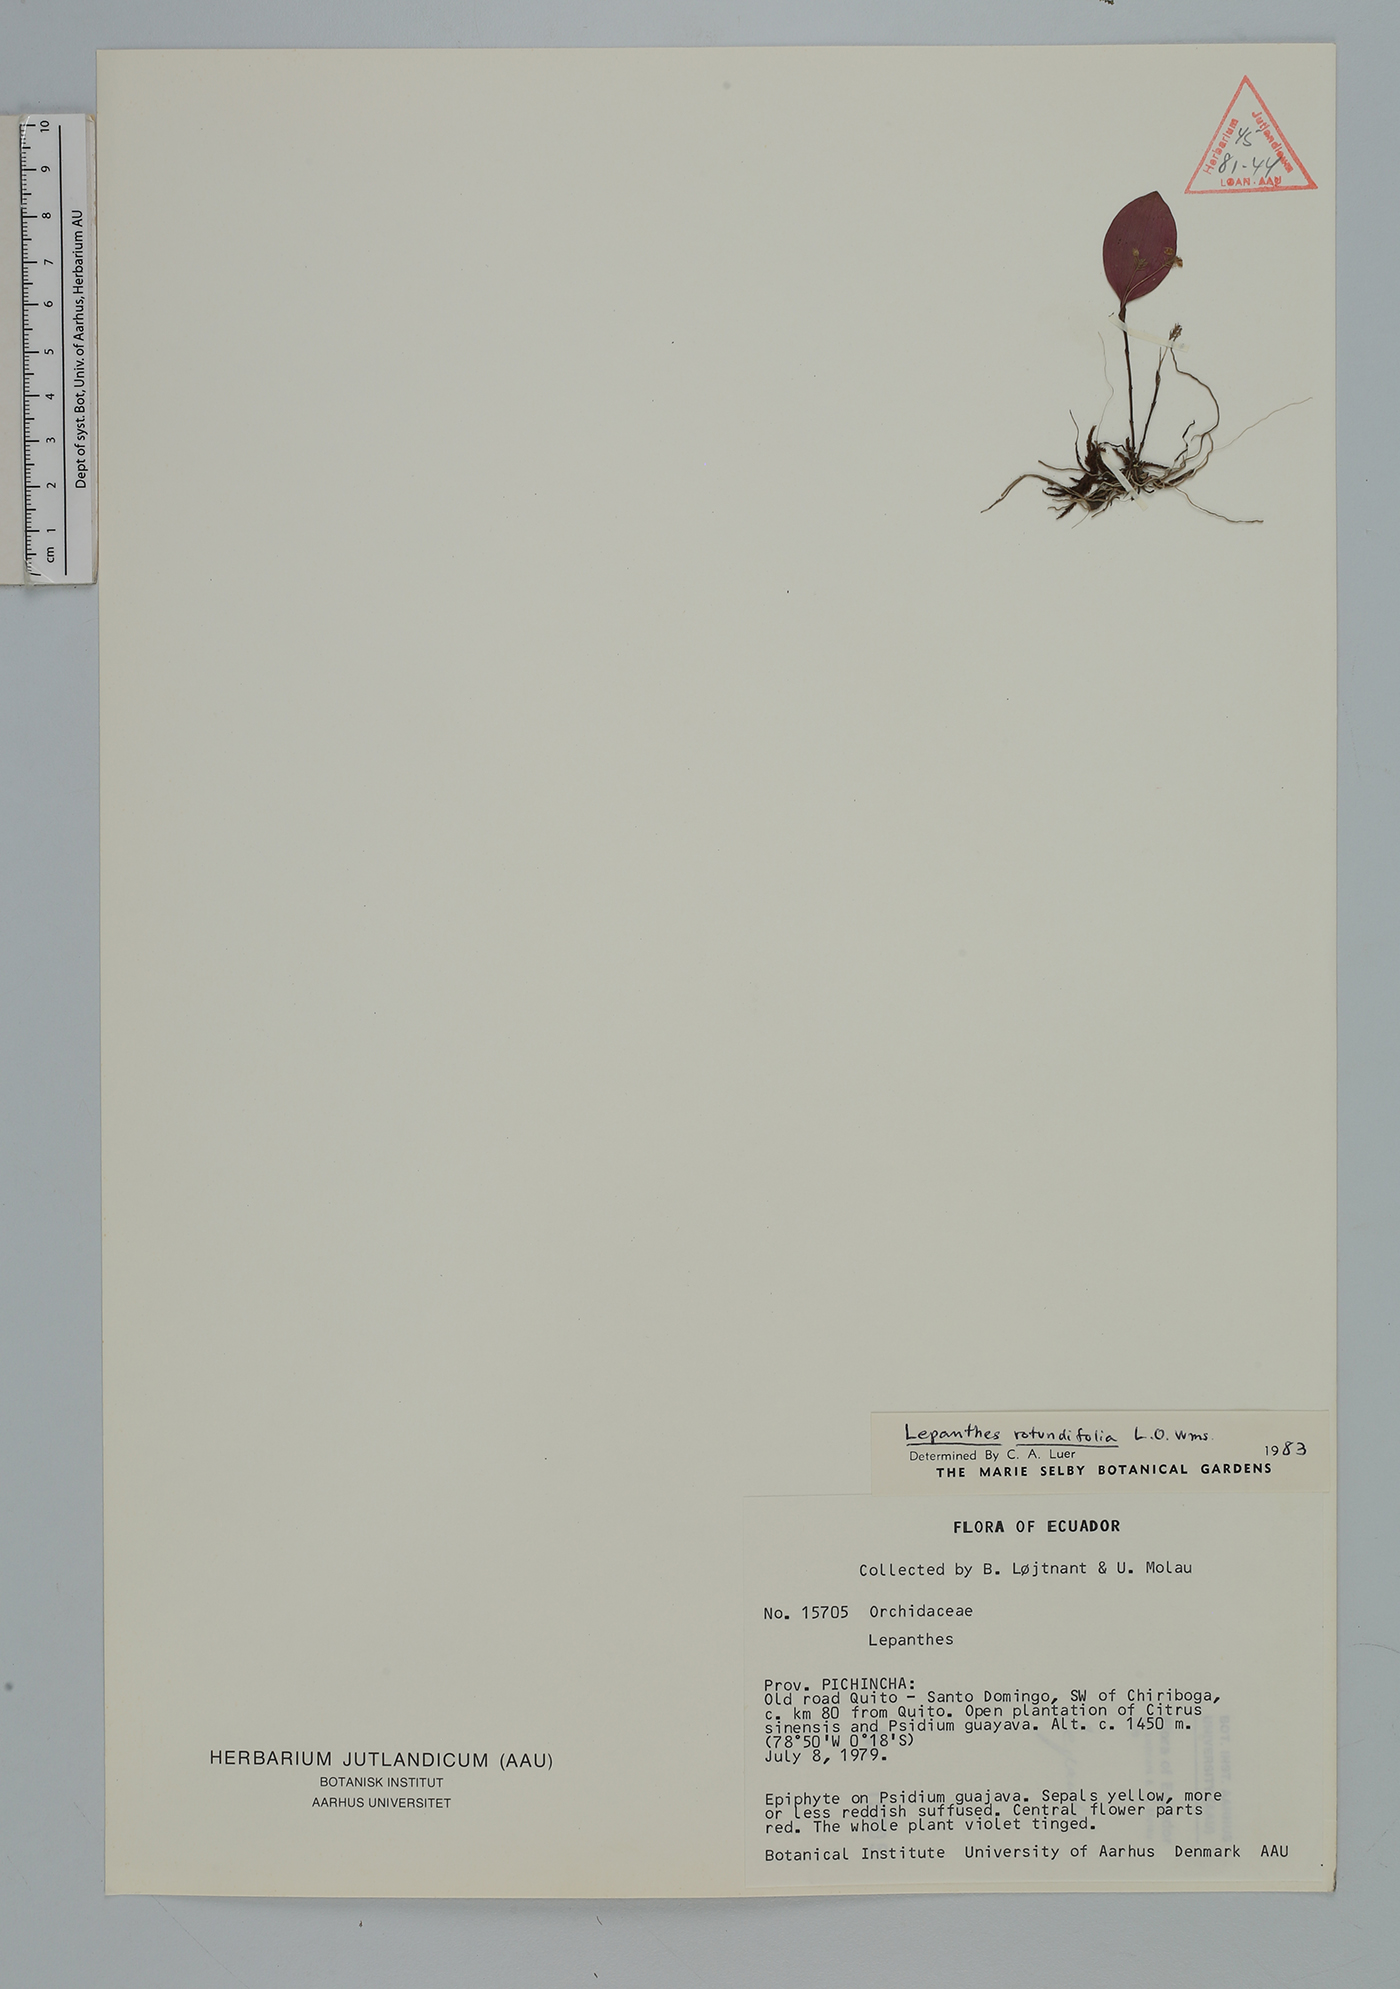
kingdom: Plantae
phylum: Tracheophyta
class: Liliopsida
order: Asparagales
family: Orchidaceae
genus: Lepanthes
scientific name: Lepanthes
